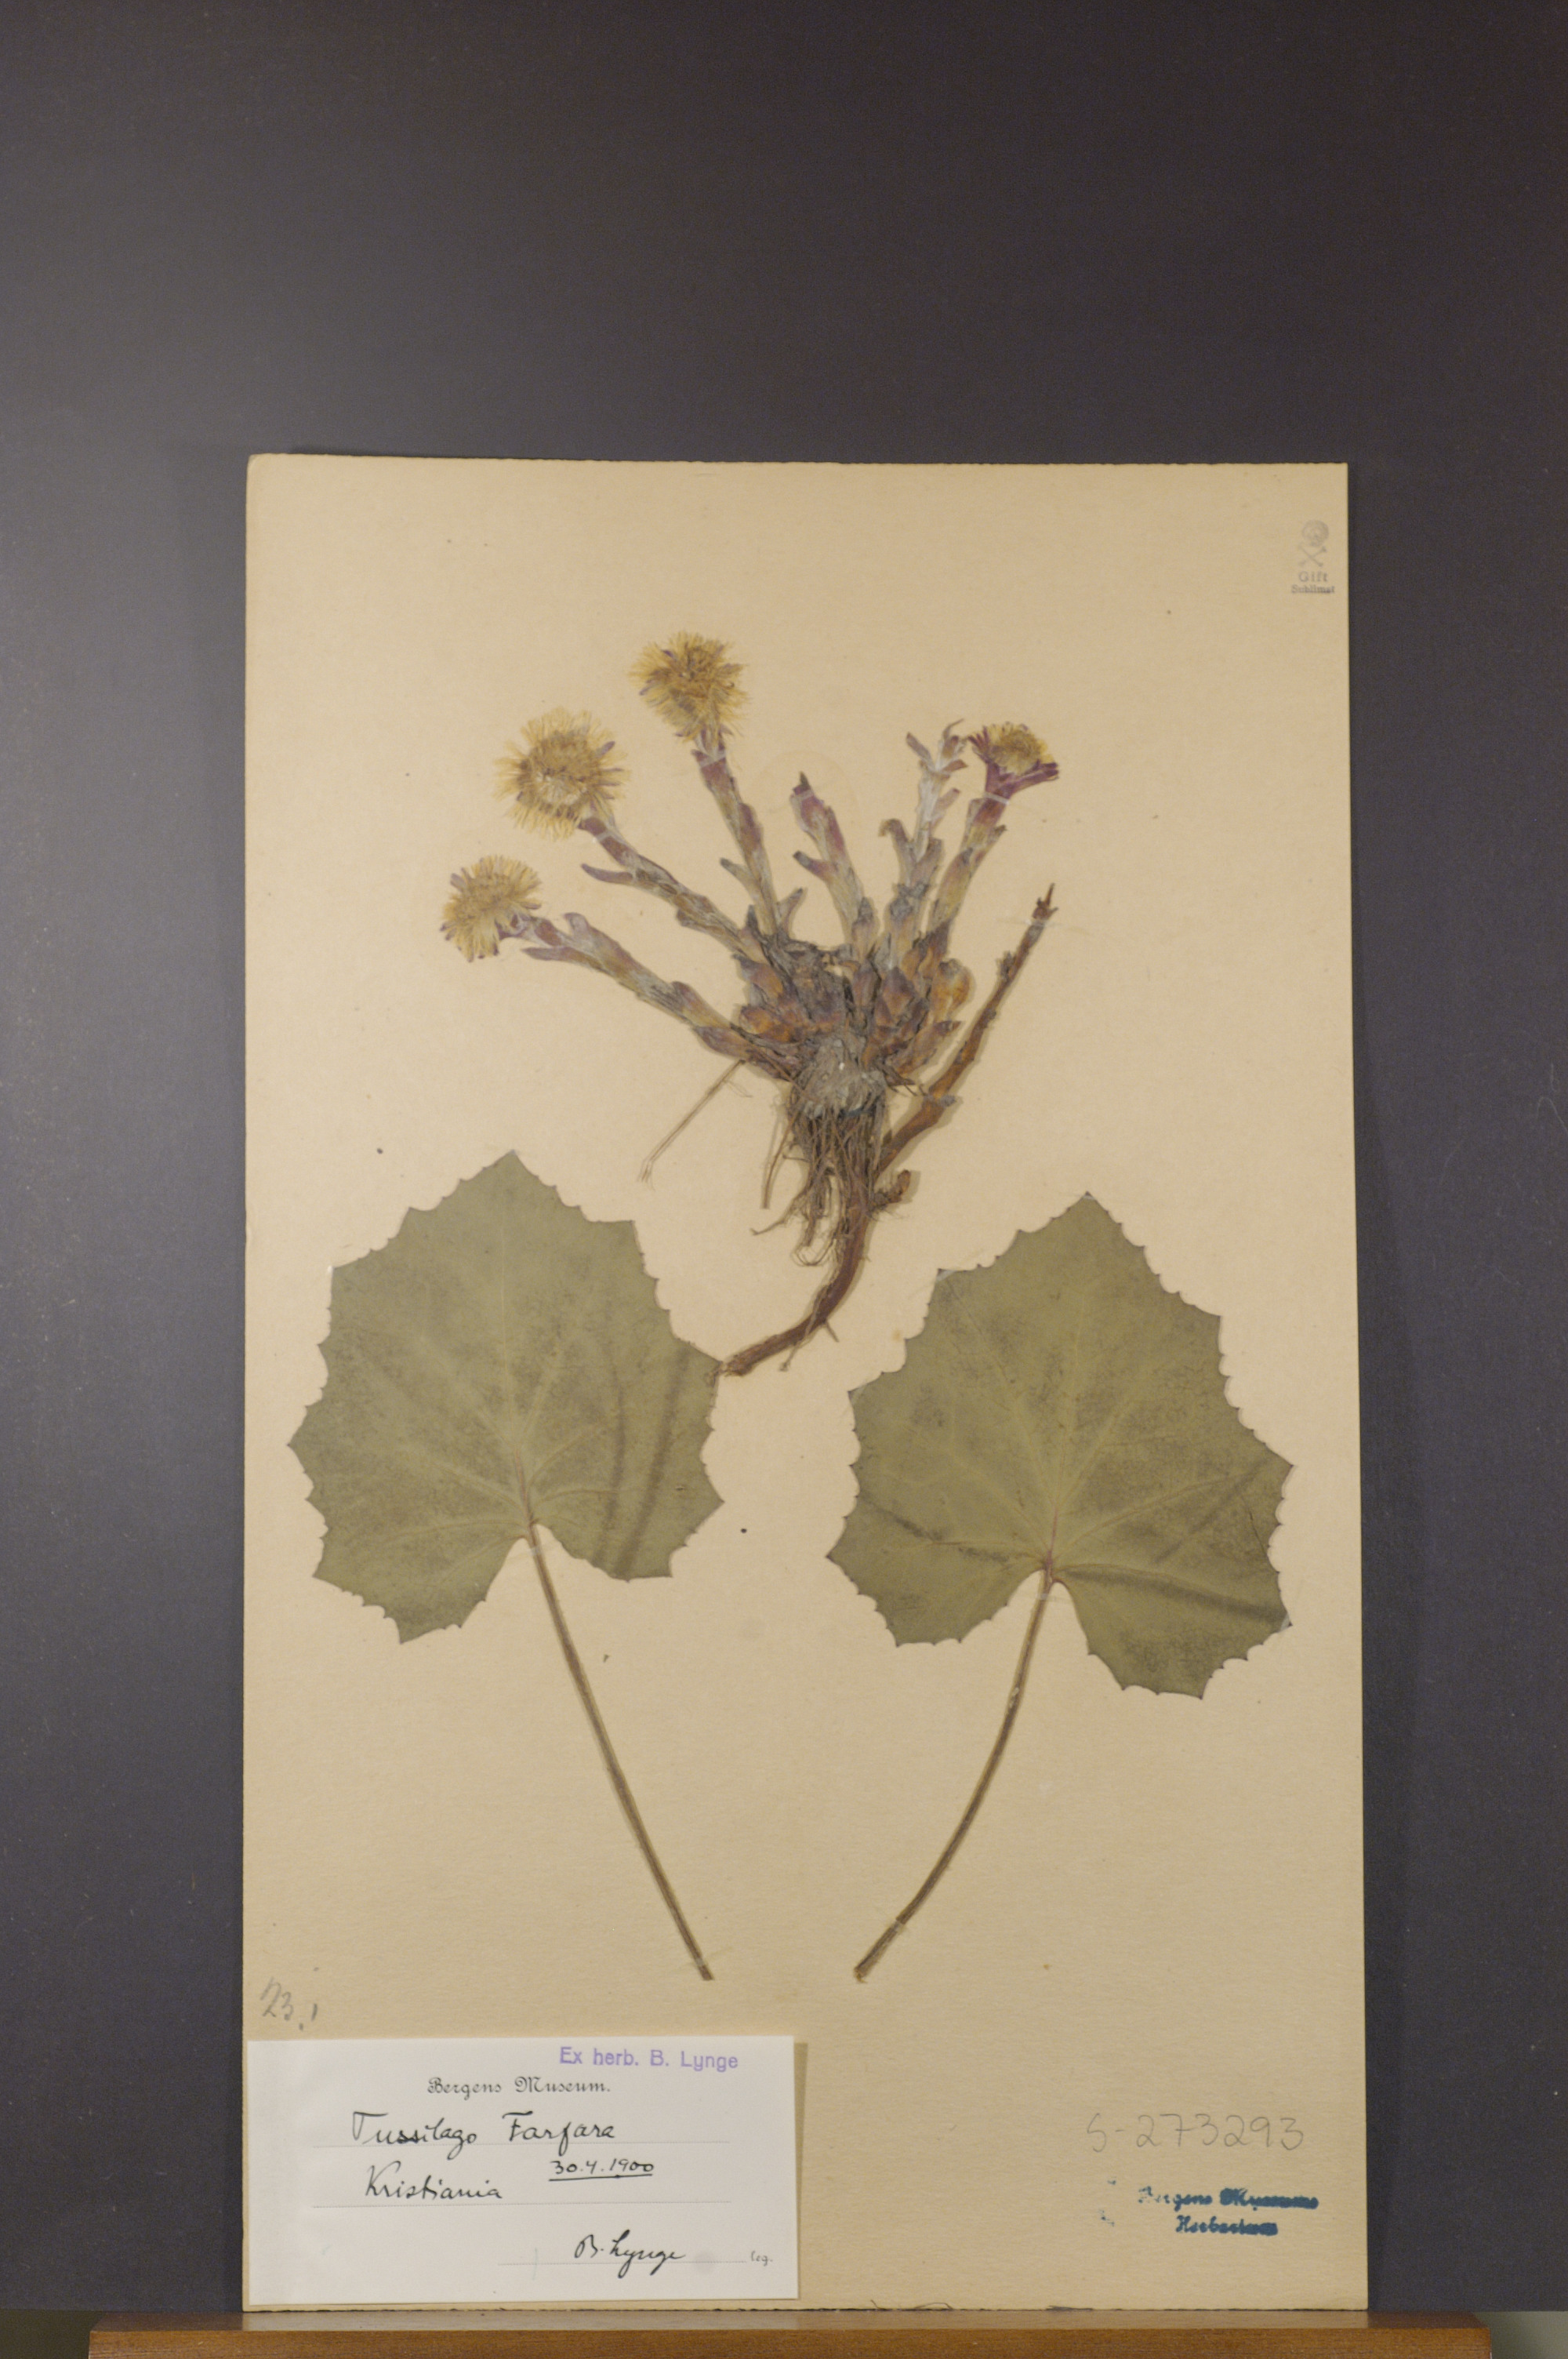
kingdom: Plantae
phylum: Tracheophyta
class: Magnoliopsida
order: Asterales
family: Asteraceae
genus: Tussilago
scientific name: Tussilago farfara
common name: Coltsfoot
